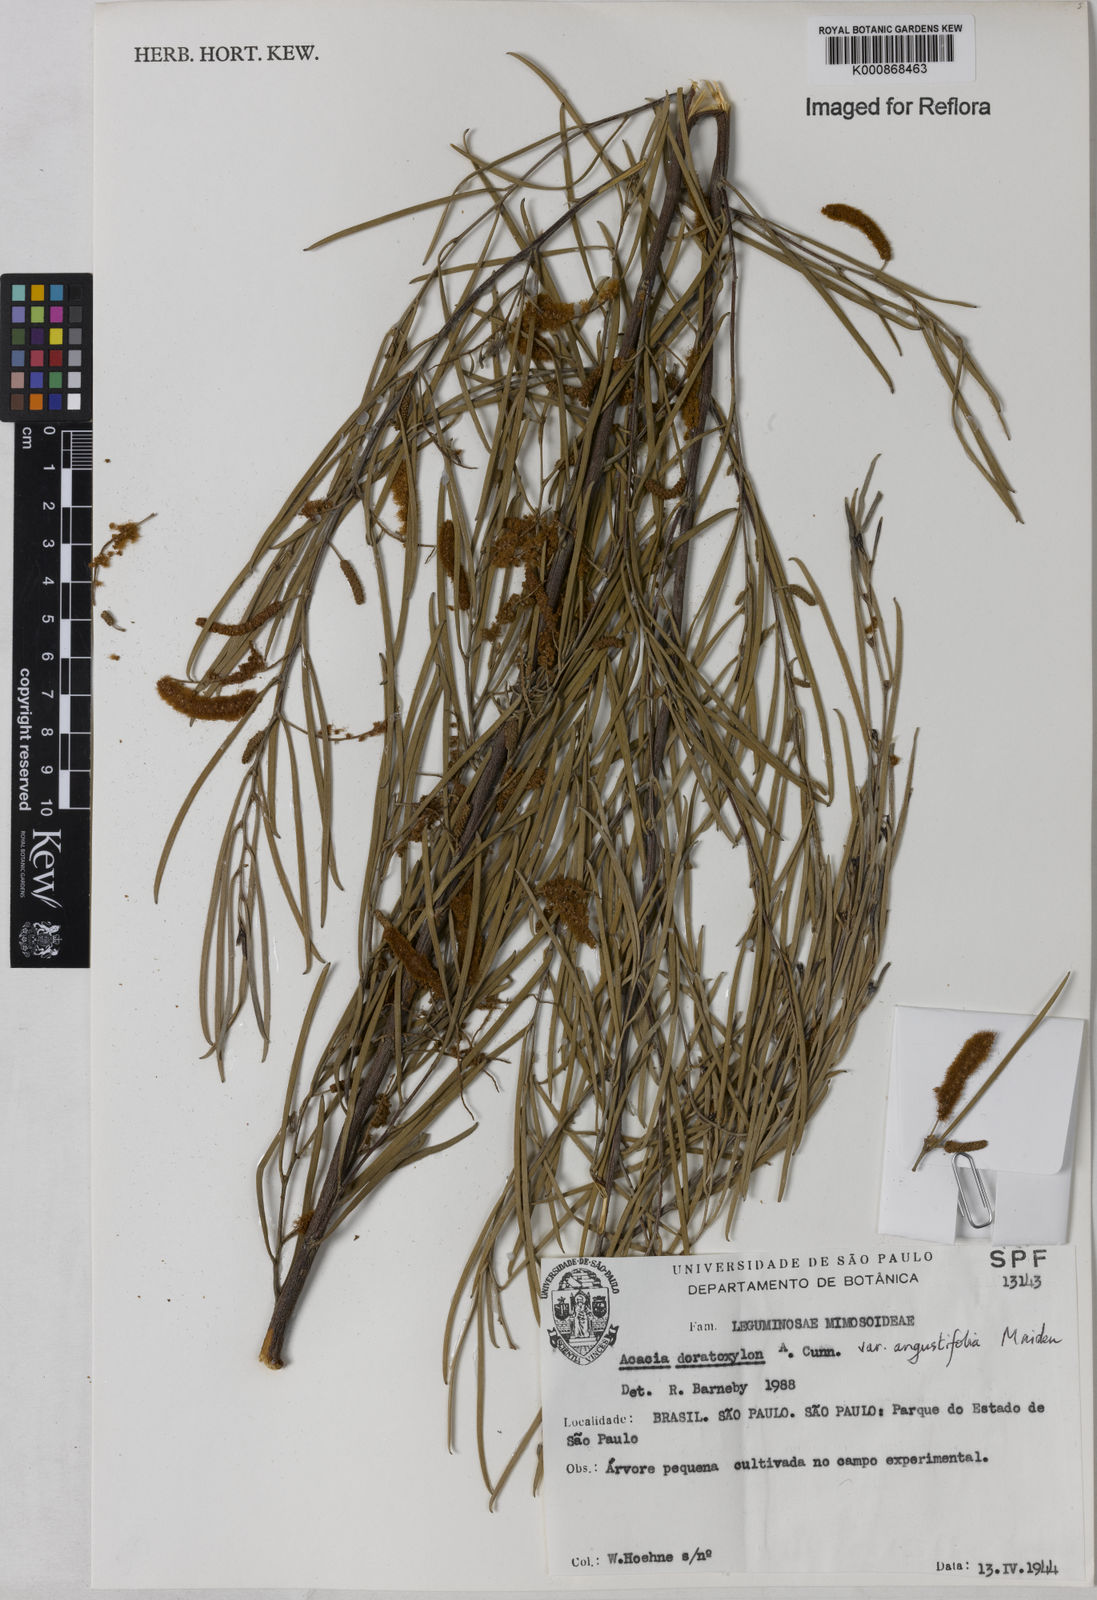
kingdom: Plantae
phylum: Tracheophyta
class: Magnoliopsida
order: Fabales
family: Fabaceae
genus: Acacia
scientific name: Acacia caroleae
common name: Narrow-leaf currawang
